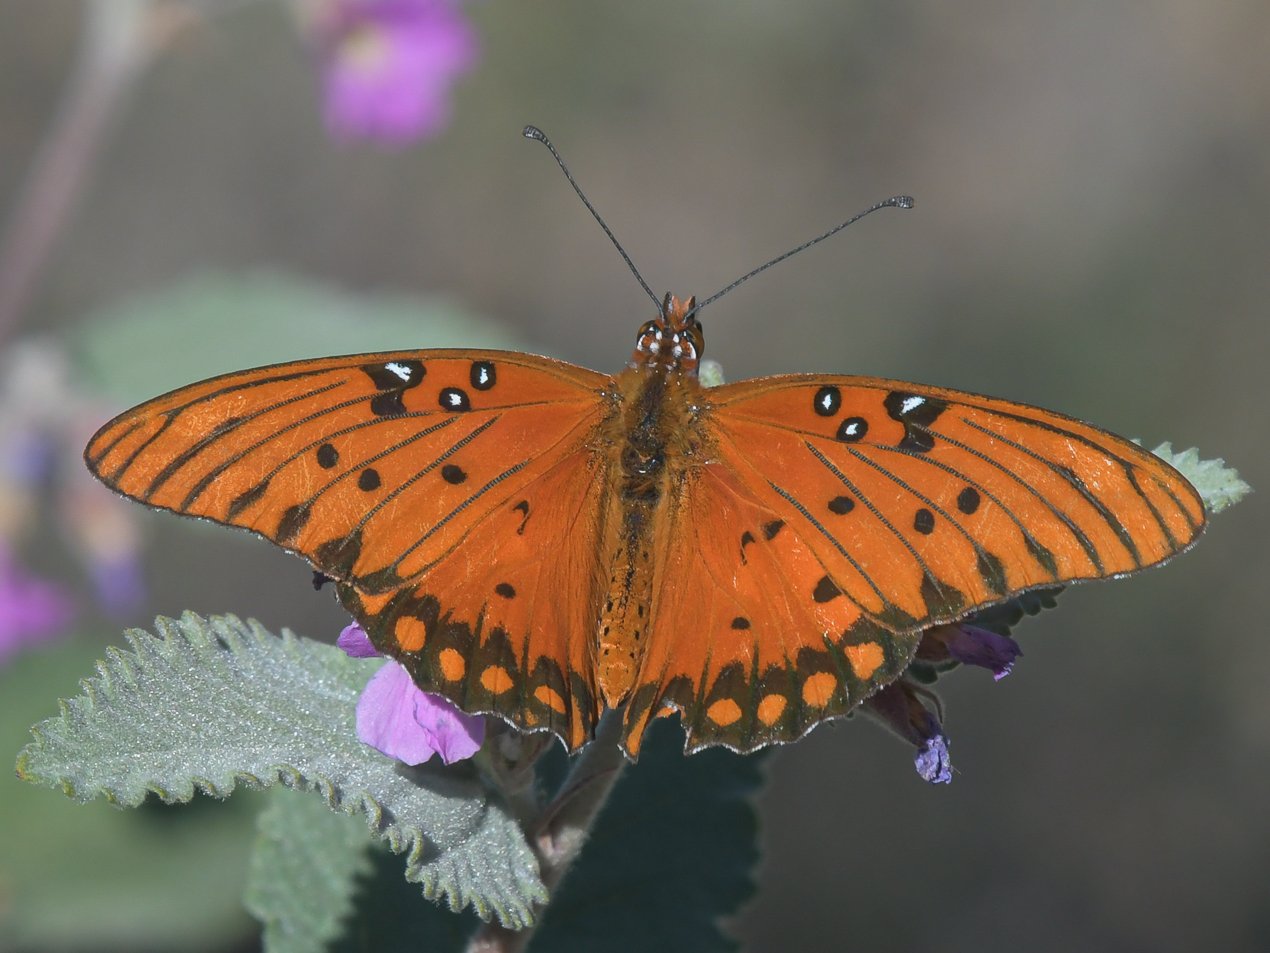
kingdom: Animalia
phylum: Arthropoda
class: Insecta
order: Lepidoptera
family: Nymphalidae
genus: Dione
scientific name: Dione vanillae
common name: Gulf Fritillary
